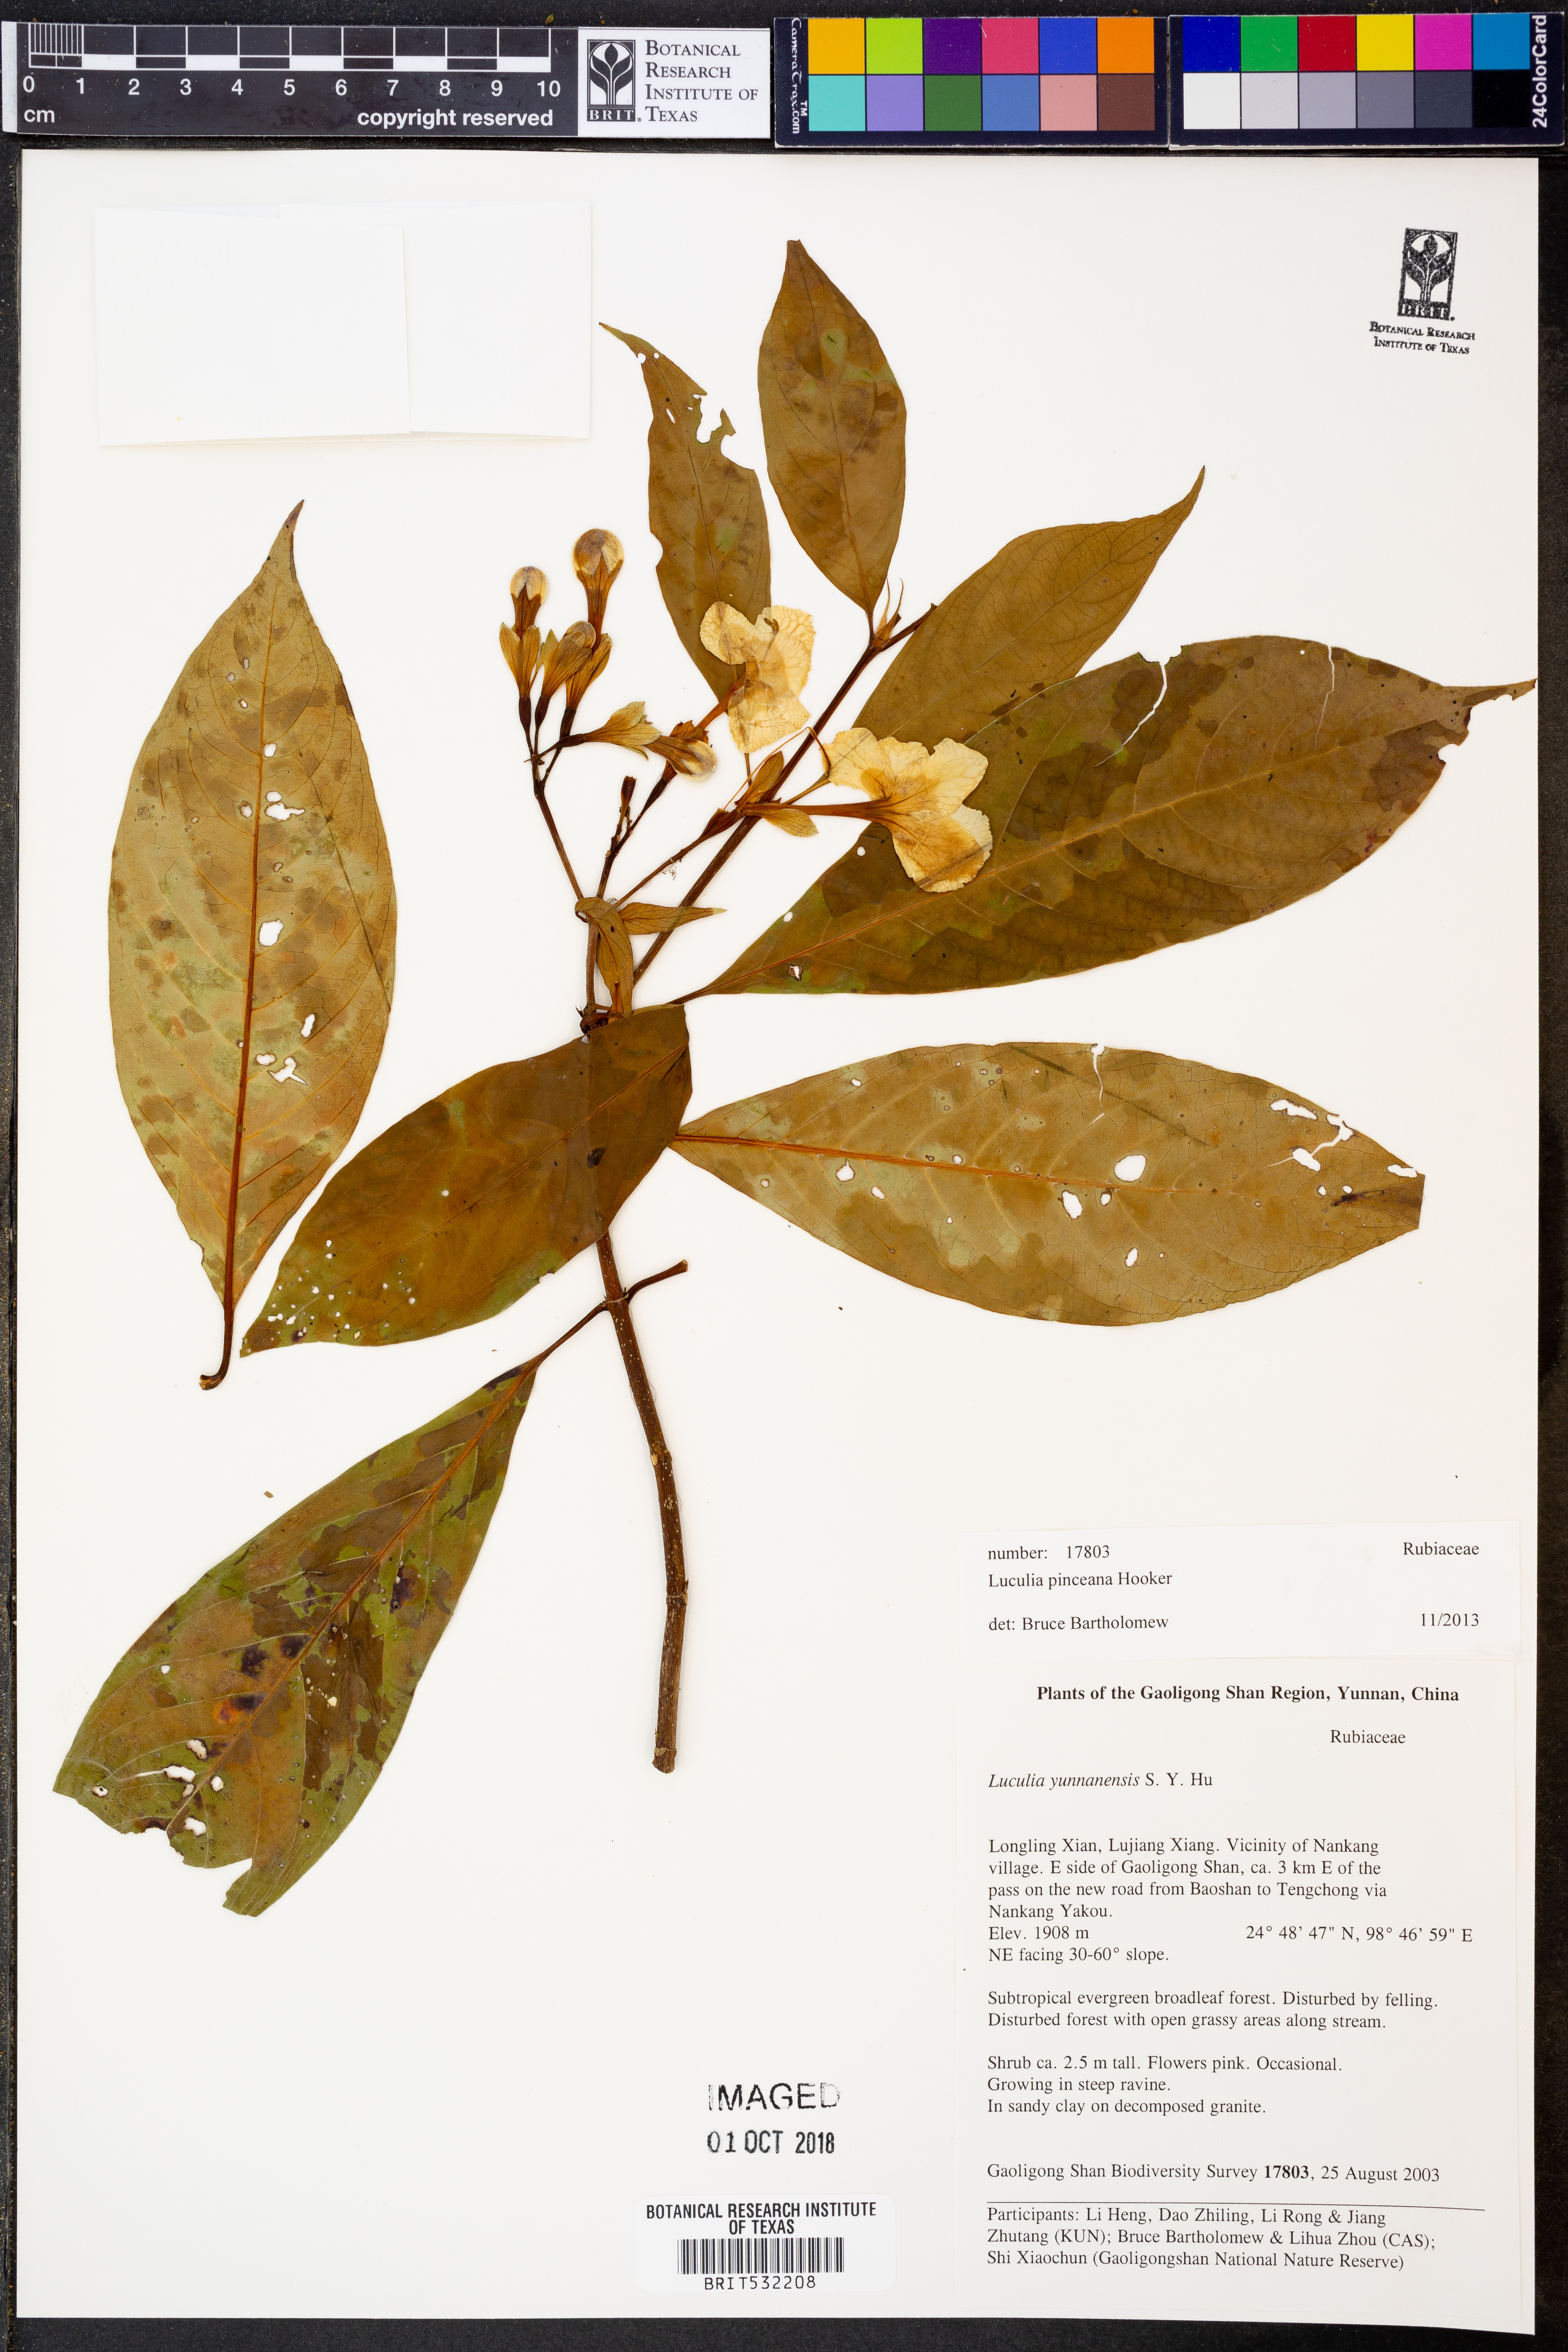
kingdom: Plantae
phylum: Tracheophyta
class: Magnoliopsida
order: Gentianales
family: Rubiaceae
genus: Luculia
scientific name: Luculia pinceana
